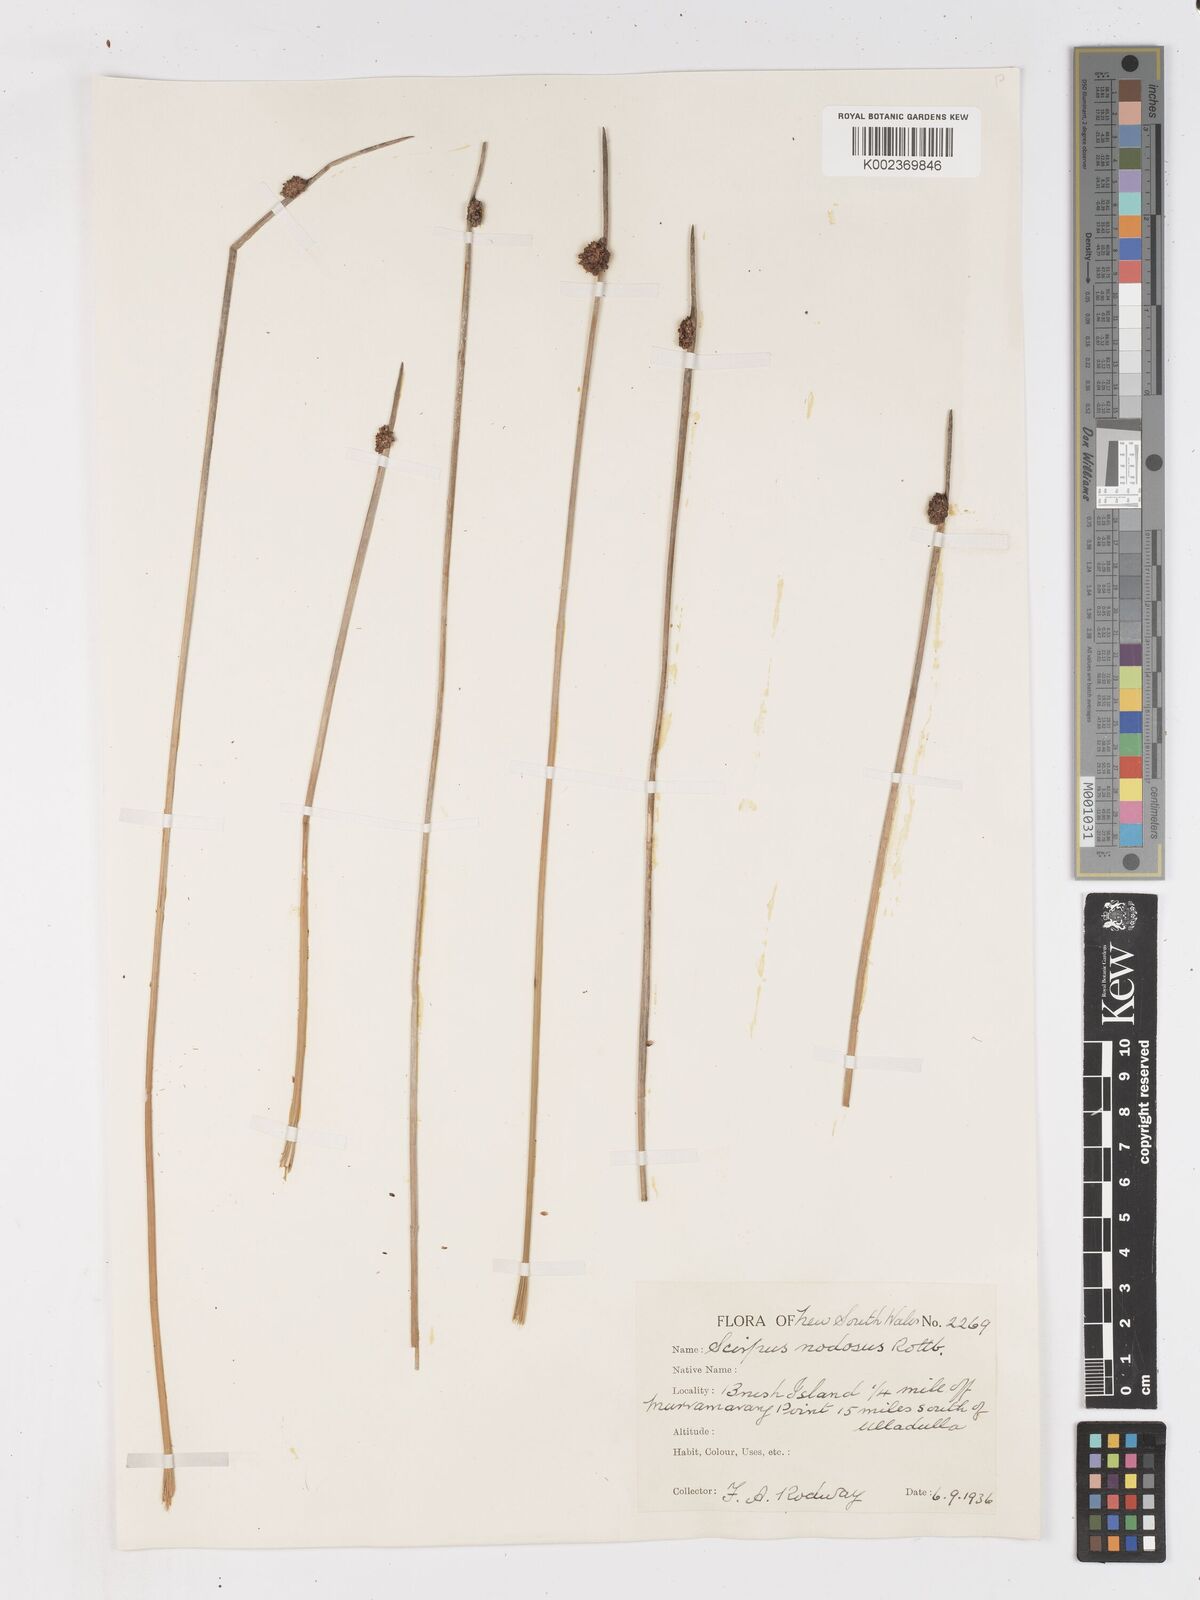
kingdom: Plantae
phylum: Tracheophyta
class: Liliopsida
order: Poales
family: Cyperaceae
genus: Ficinia
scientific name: Ficinia nodosa
